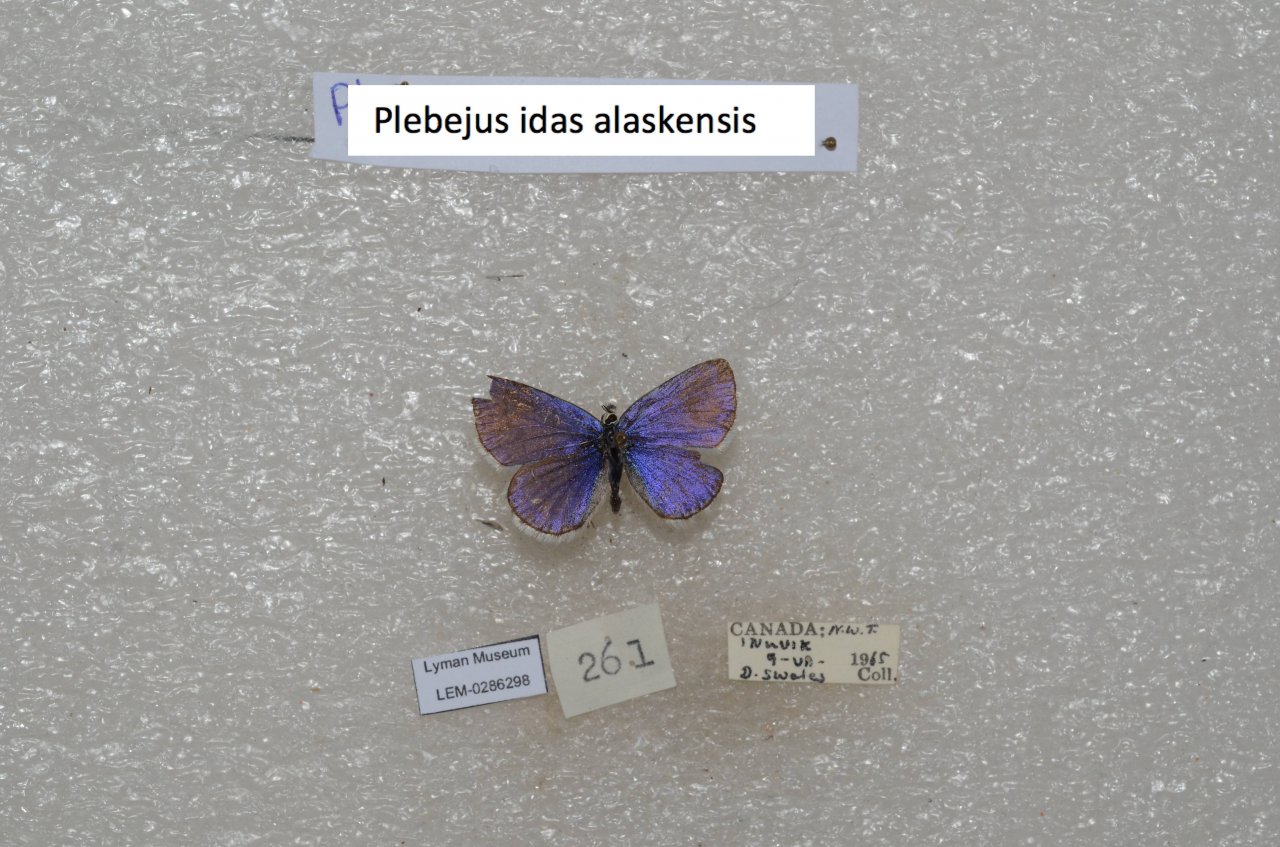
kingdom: Animalia
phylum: Arthropoda
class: Insecta
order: Lepidoptera
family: Lycaenidae
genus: Lycaeides
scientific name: Lycaeides idas
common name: Northern Blue
